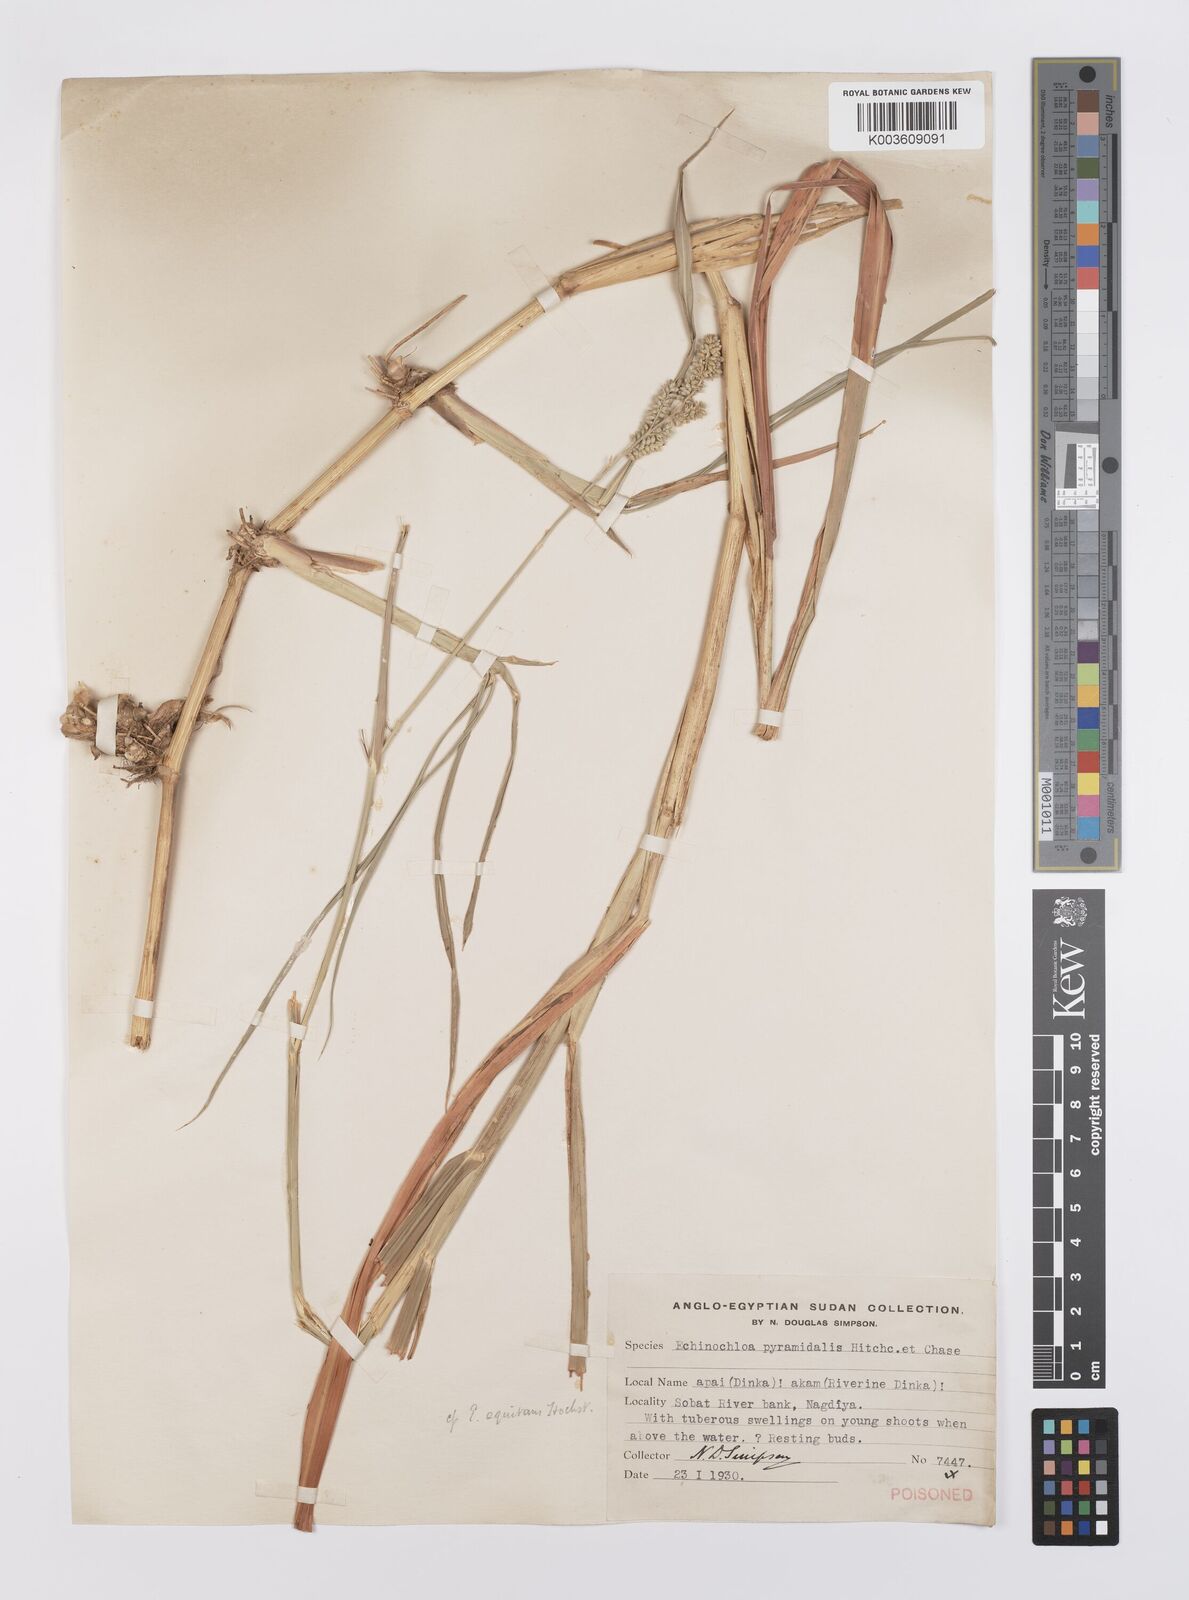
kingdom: Plantae
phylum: Tracheophyta
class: Liliopsida
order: Poales
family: Poaceae
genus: Echinochloa
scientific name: Echinochloa pyramidalis
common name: Antelope grass
